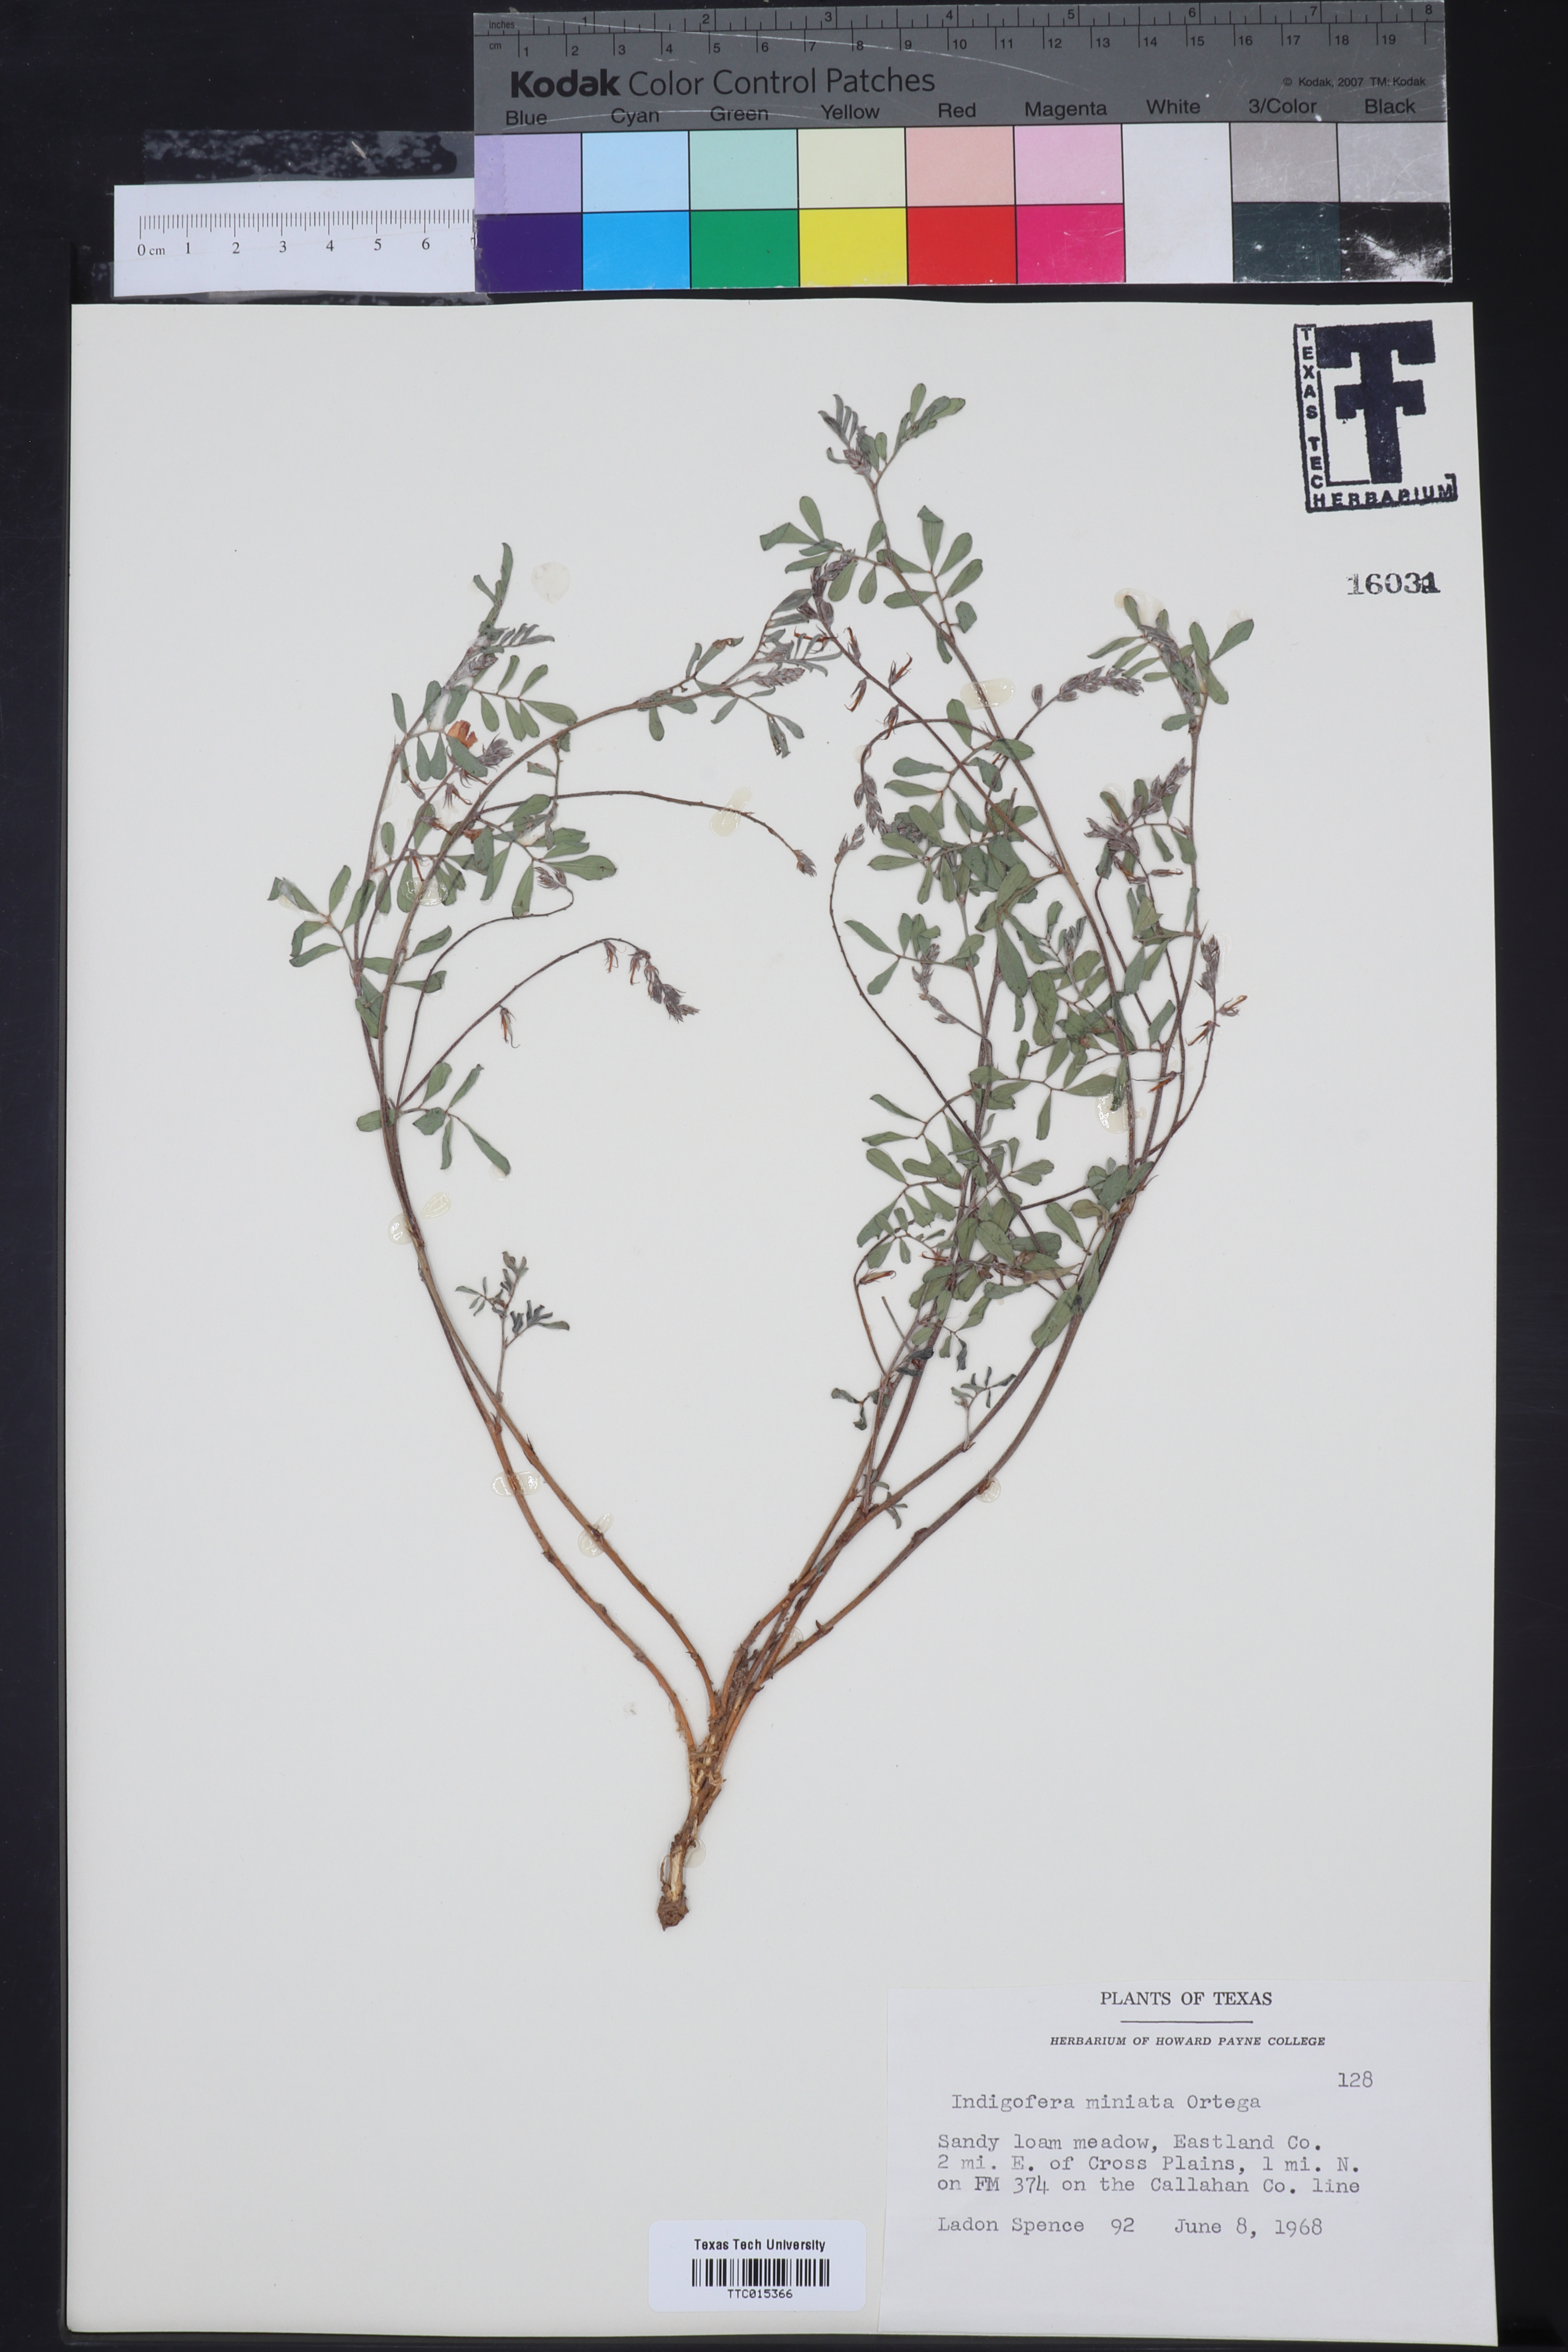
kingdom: Plantae
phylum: Tracheophyta
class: Magnoliopsida
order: Fabales
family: Fabaceae
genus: Indigofera
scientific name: Indigofera miniata
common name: Coast indigo
